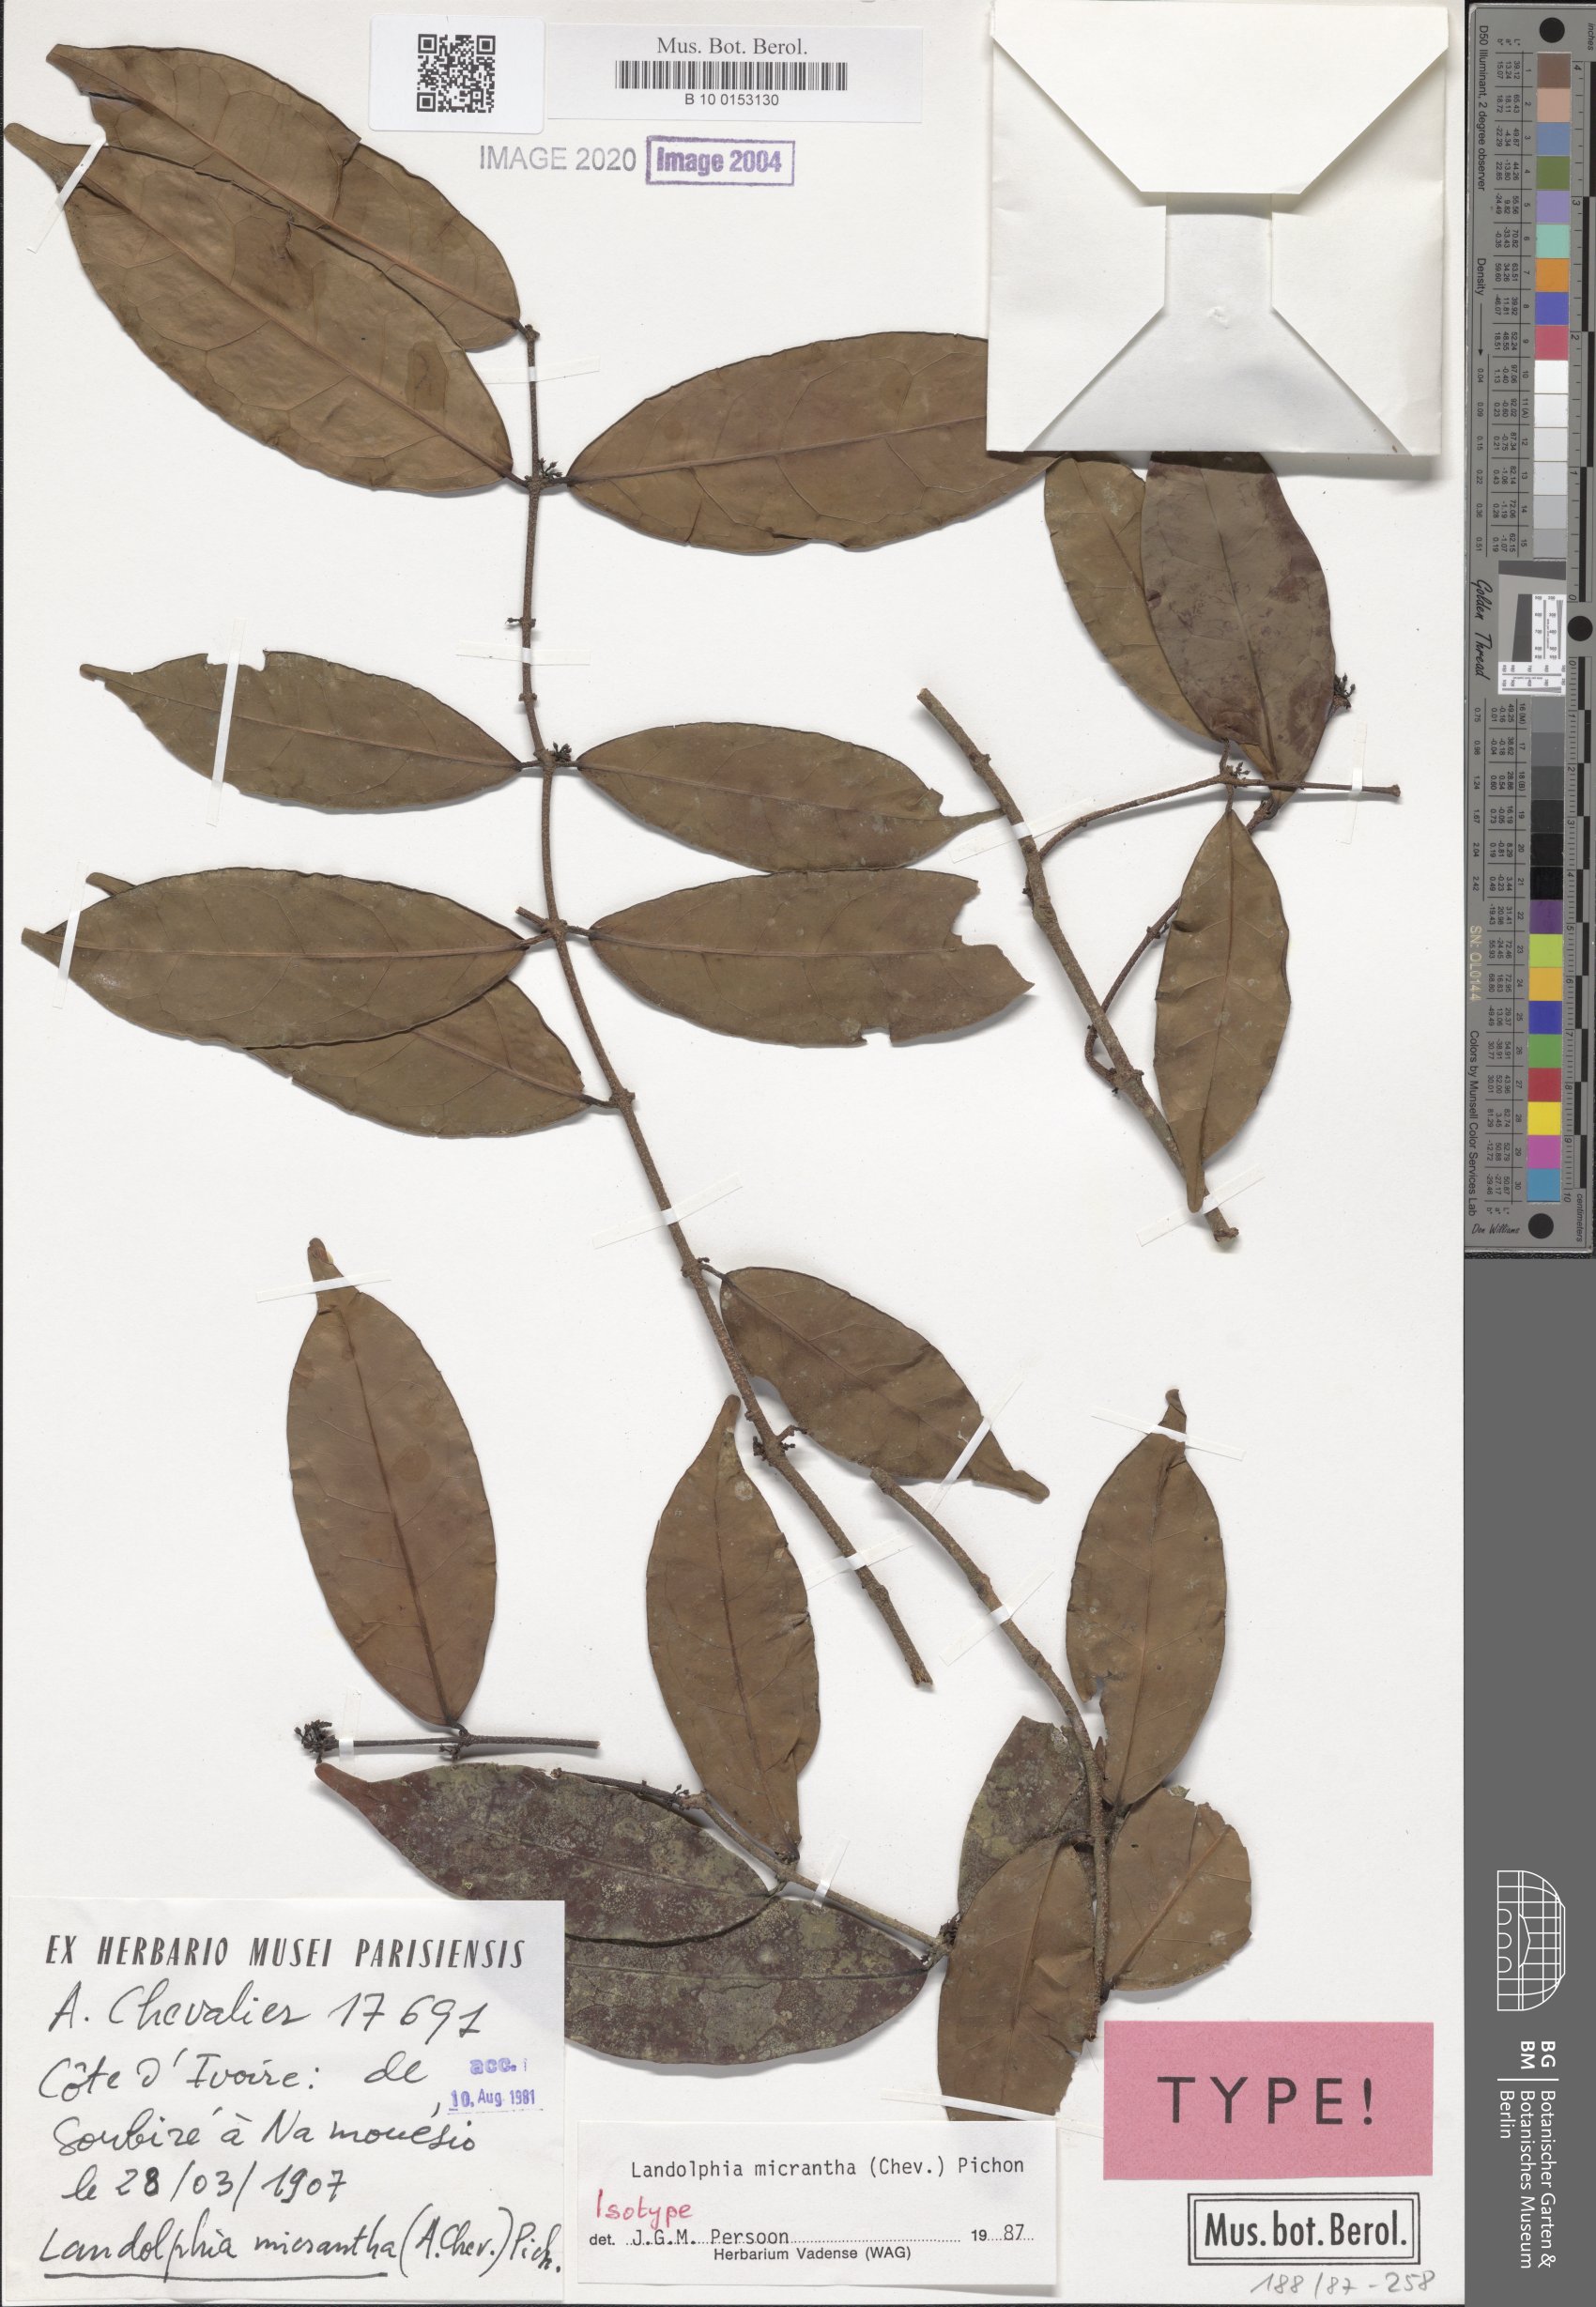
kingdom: Plantae
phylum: Tracheophyta
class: Magnoliopsida
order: Gentianales
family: Apocynaceae
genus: Landolphia
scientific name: Landolphia micrantha
